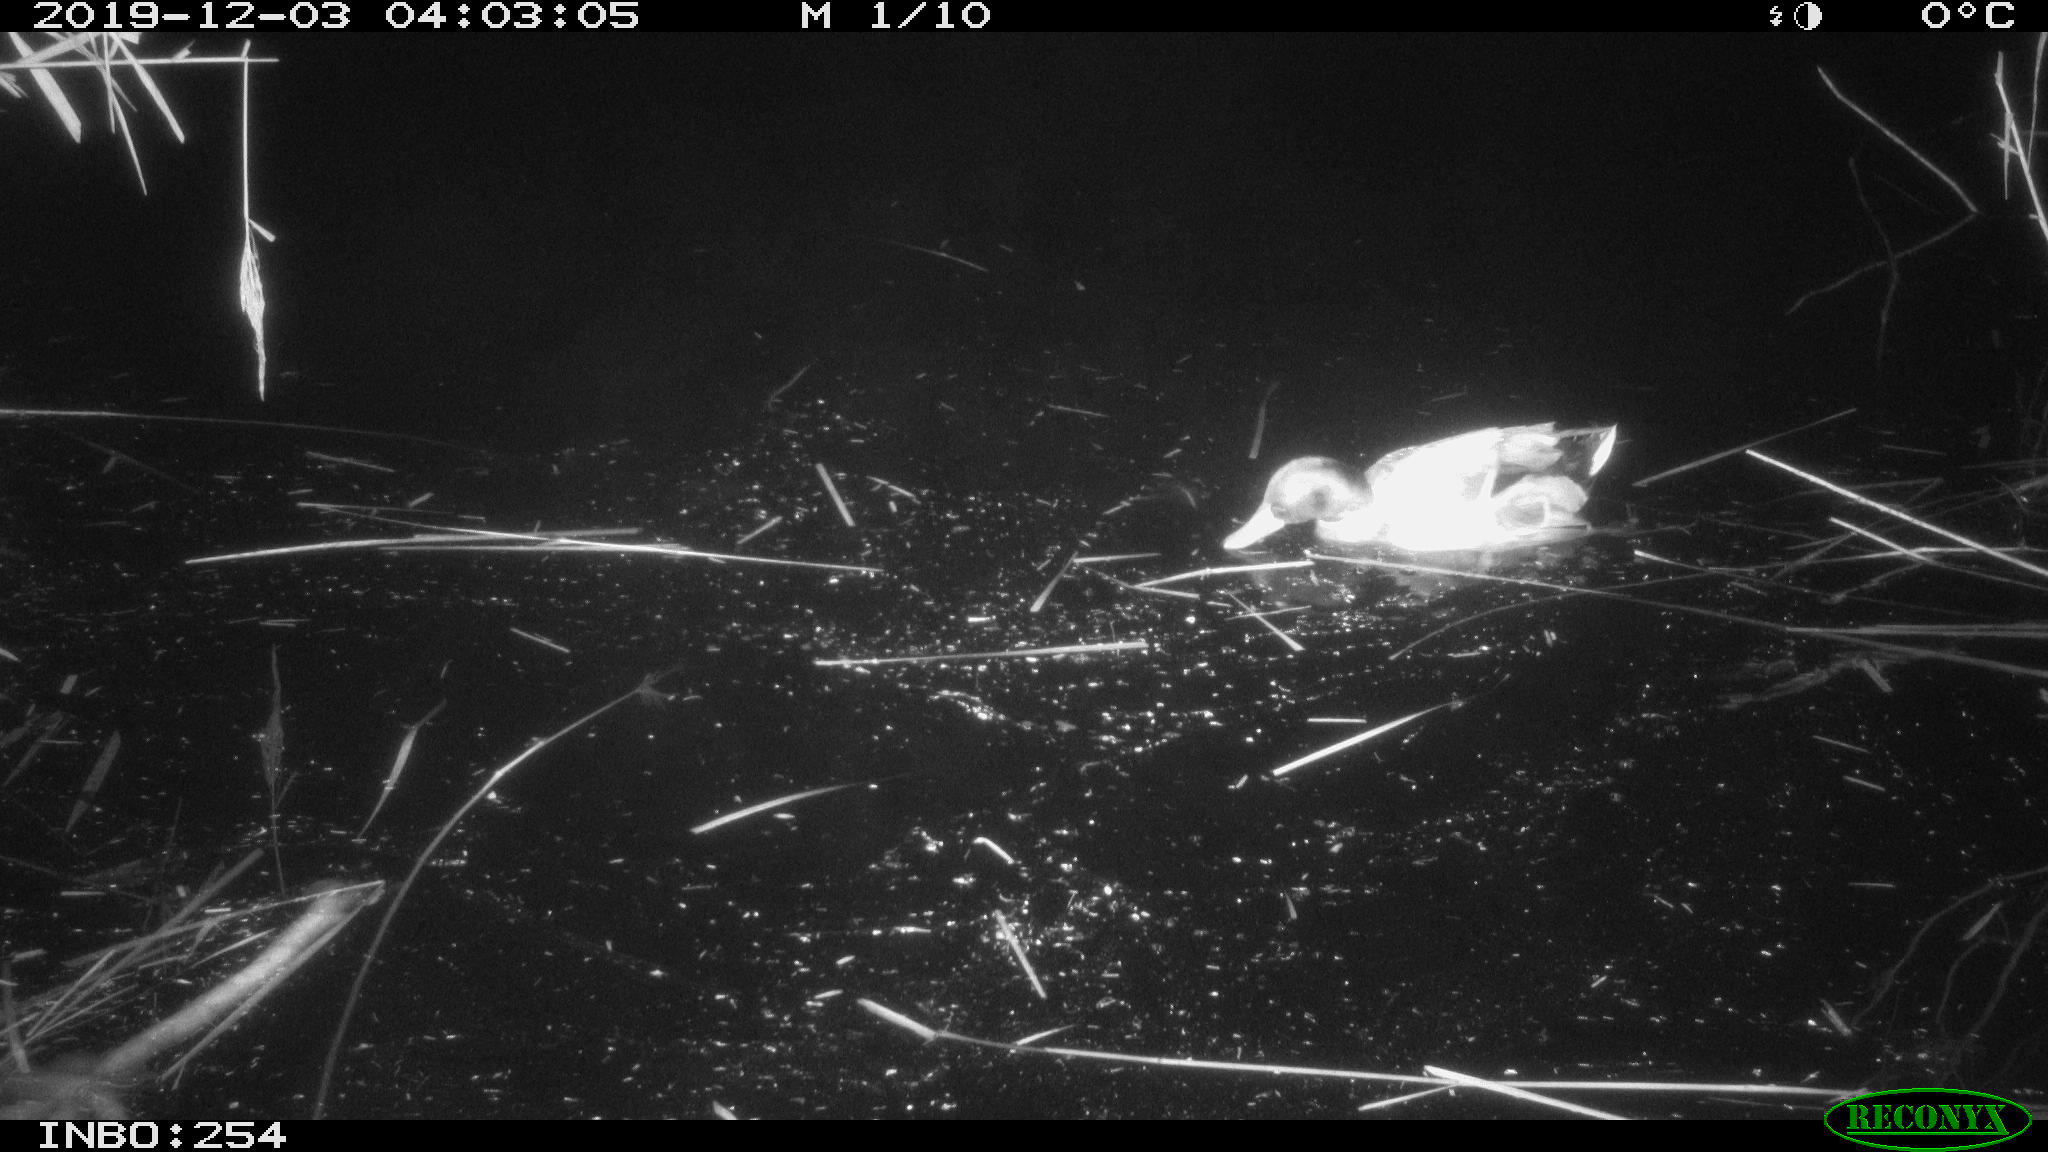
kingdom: Animalia
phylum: Chordata
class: Aves
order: Anseriformes
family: Anatidae
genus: Anas
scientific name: Anas platyrhynchos
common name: Mallard
